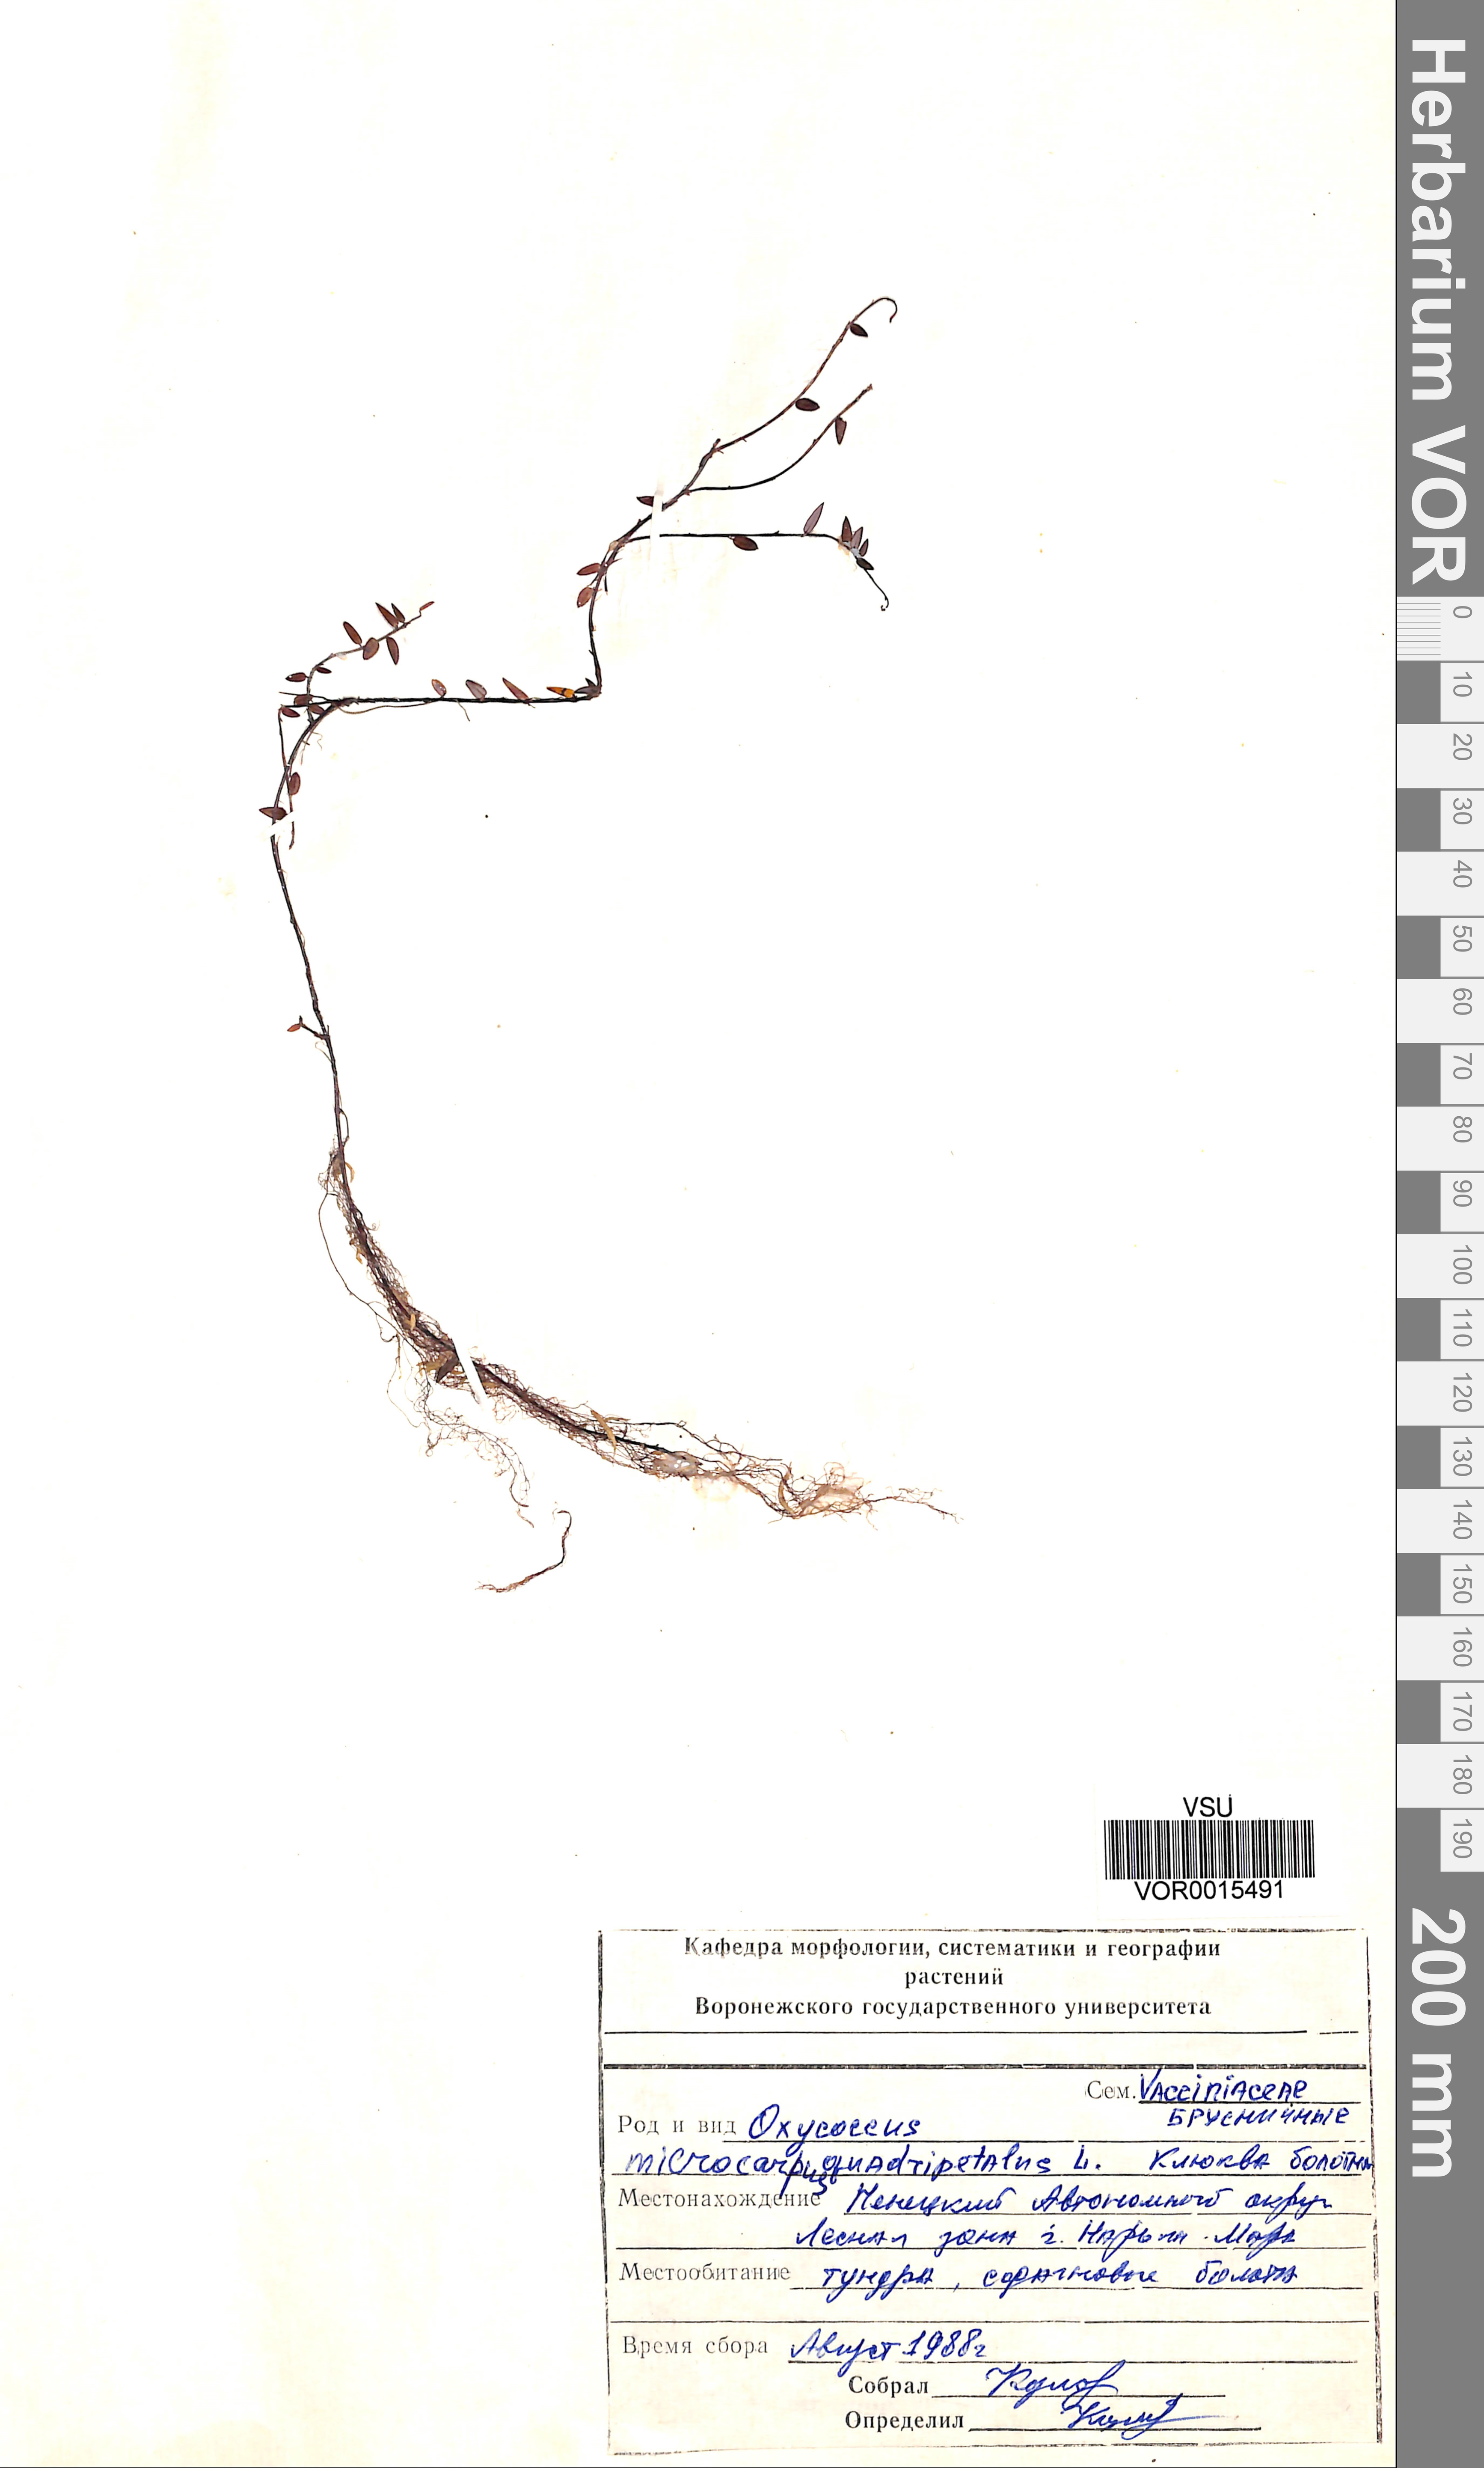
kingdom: Plantae
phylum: Tracheophyta
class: Magnoliopsida
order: Ericales
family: Ericaceae
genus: Vaccinium
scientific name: Vaccinium oxycoccos
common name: Cranberry
